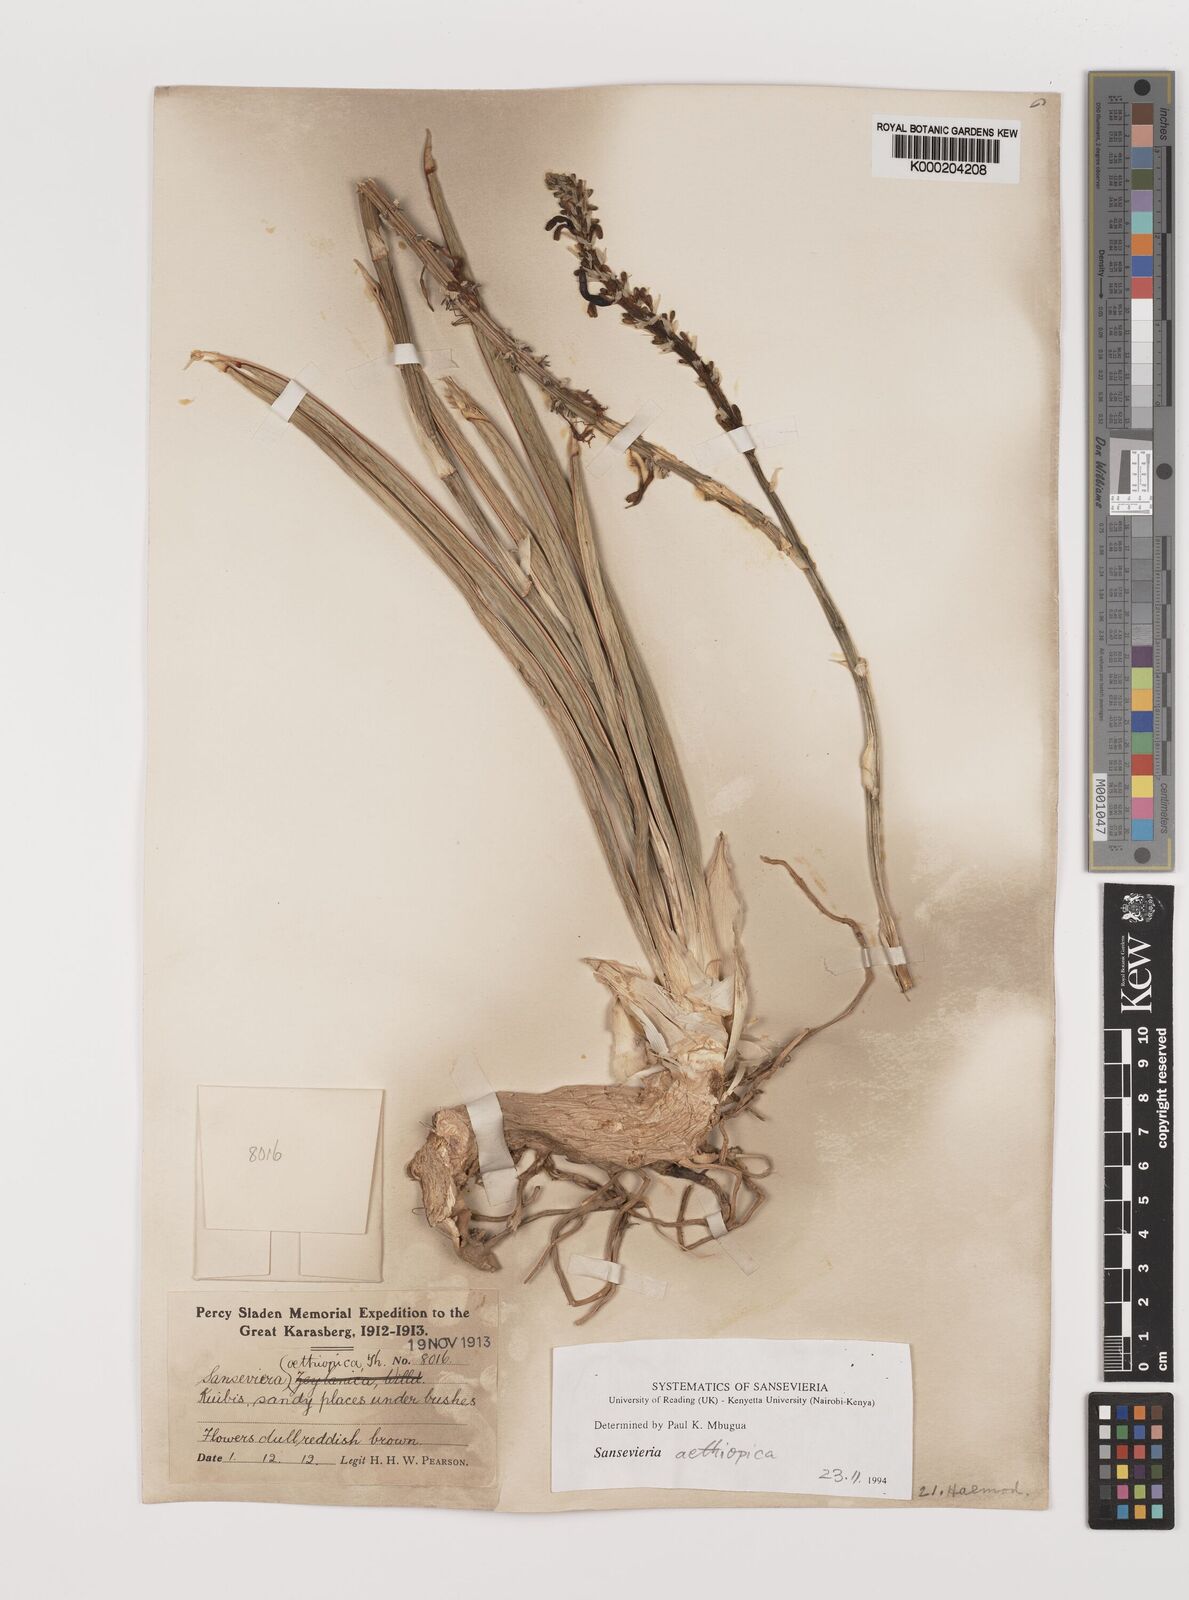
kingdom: Plantae
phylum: Tracheophyta
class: Liliopsida
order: Asparagales
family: Asparagaceae
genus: Dracaena
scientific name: Dracaena aethiopica
